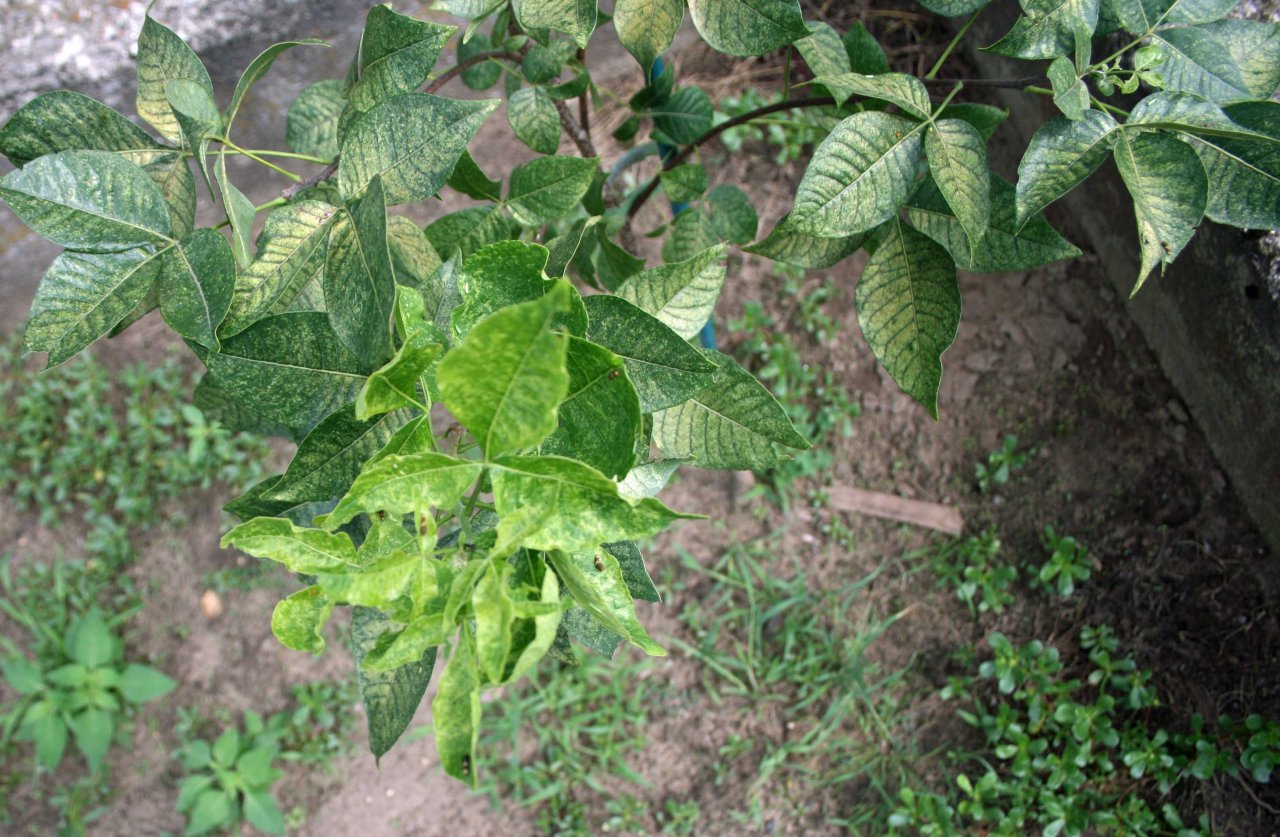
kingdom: Animalia
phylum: Arthropoda
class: Insecta
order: Lepidoptera
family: Papilionidae
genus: Papilio
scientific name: Papilio cresphontes
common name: Eastern Giant Swallowtail
